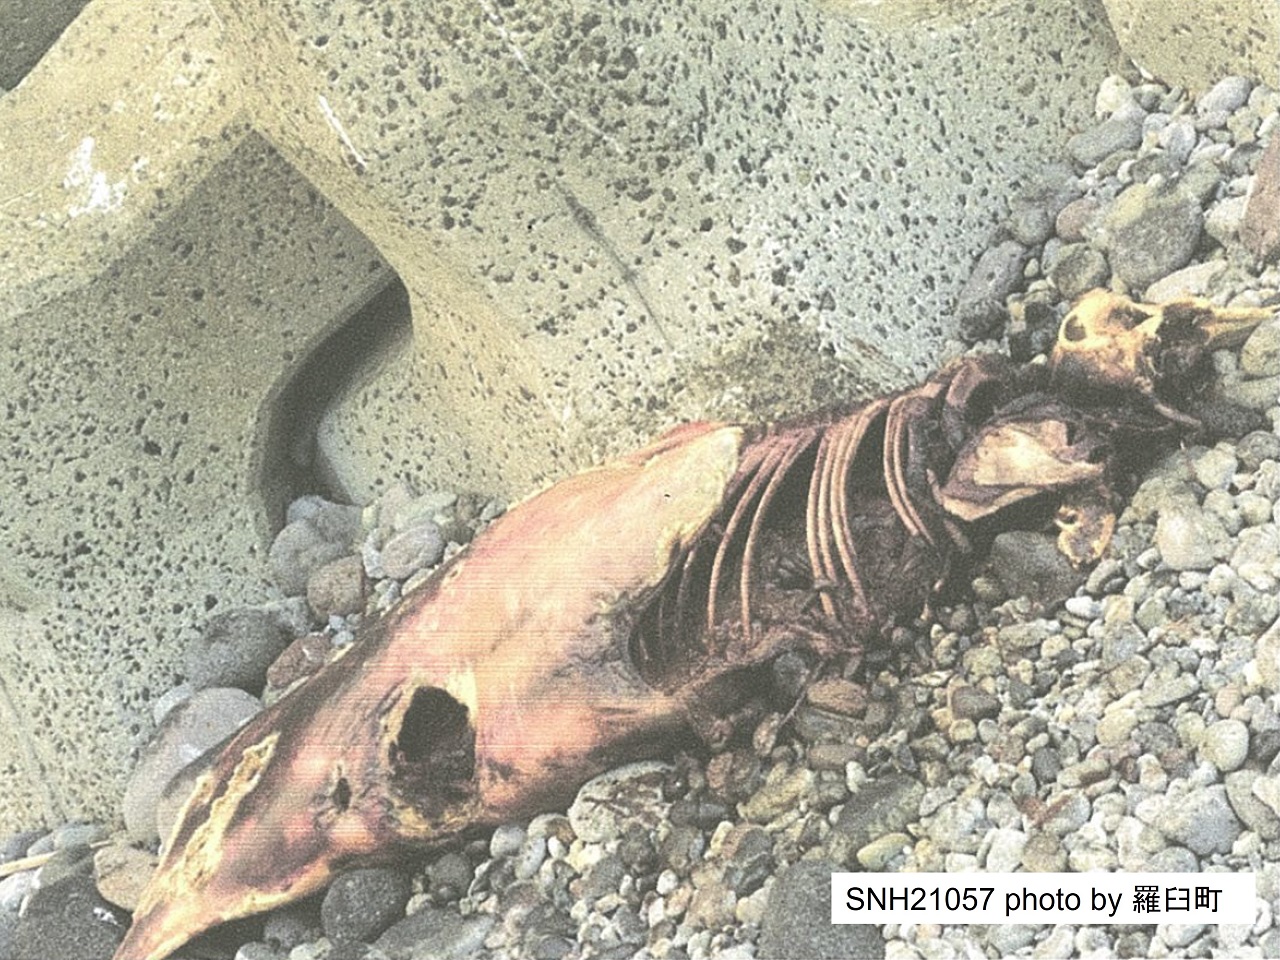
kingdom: Animalia
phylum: Chordata
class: Mammalia
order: Cetacea
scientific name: Cetacea
